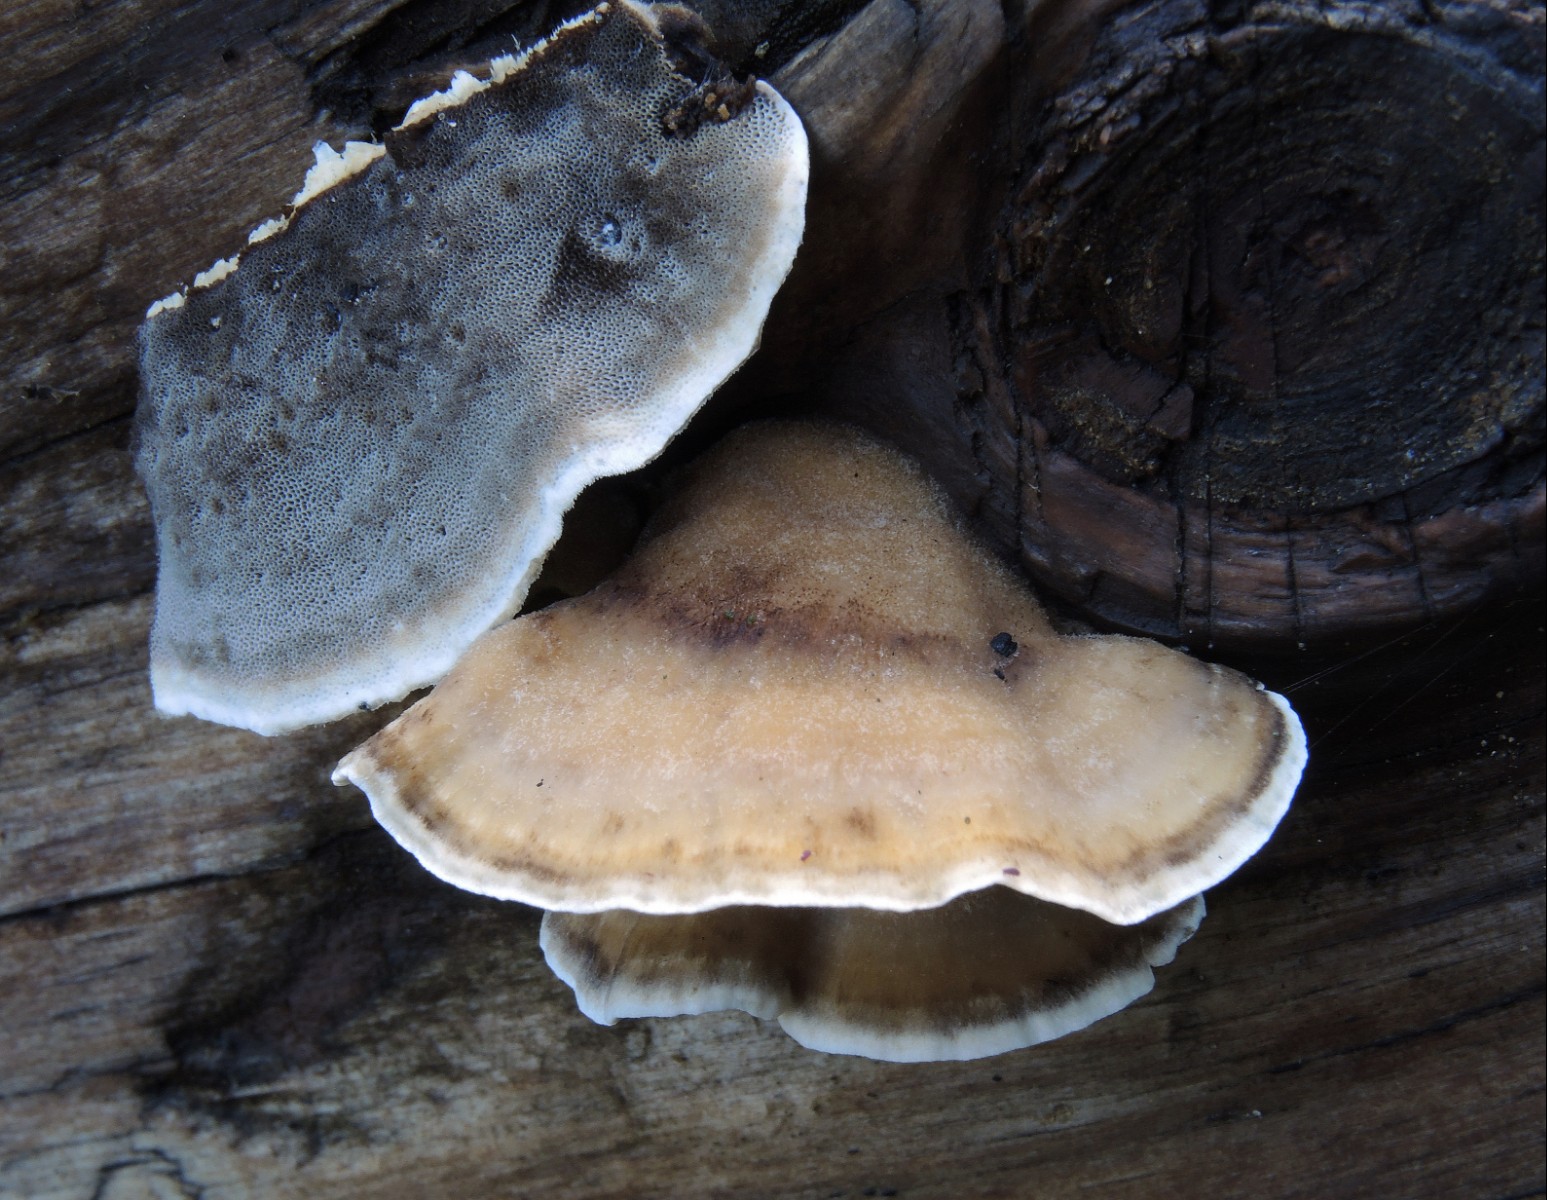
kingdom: Fungi
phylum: Basidiomycota
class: Agaricomycetes
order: Polyporales
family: Phanerochaetaceae
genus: Bjerkandera
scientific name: Bjerkandera adusta
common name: sveden sodporesvamp
